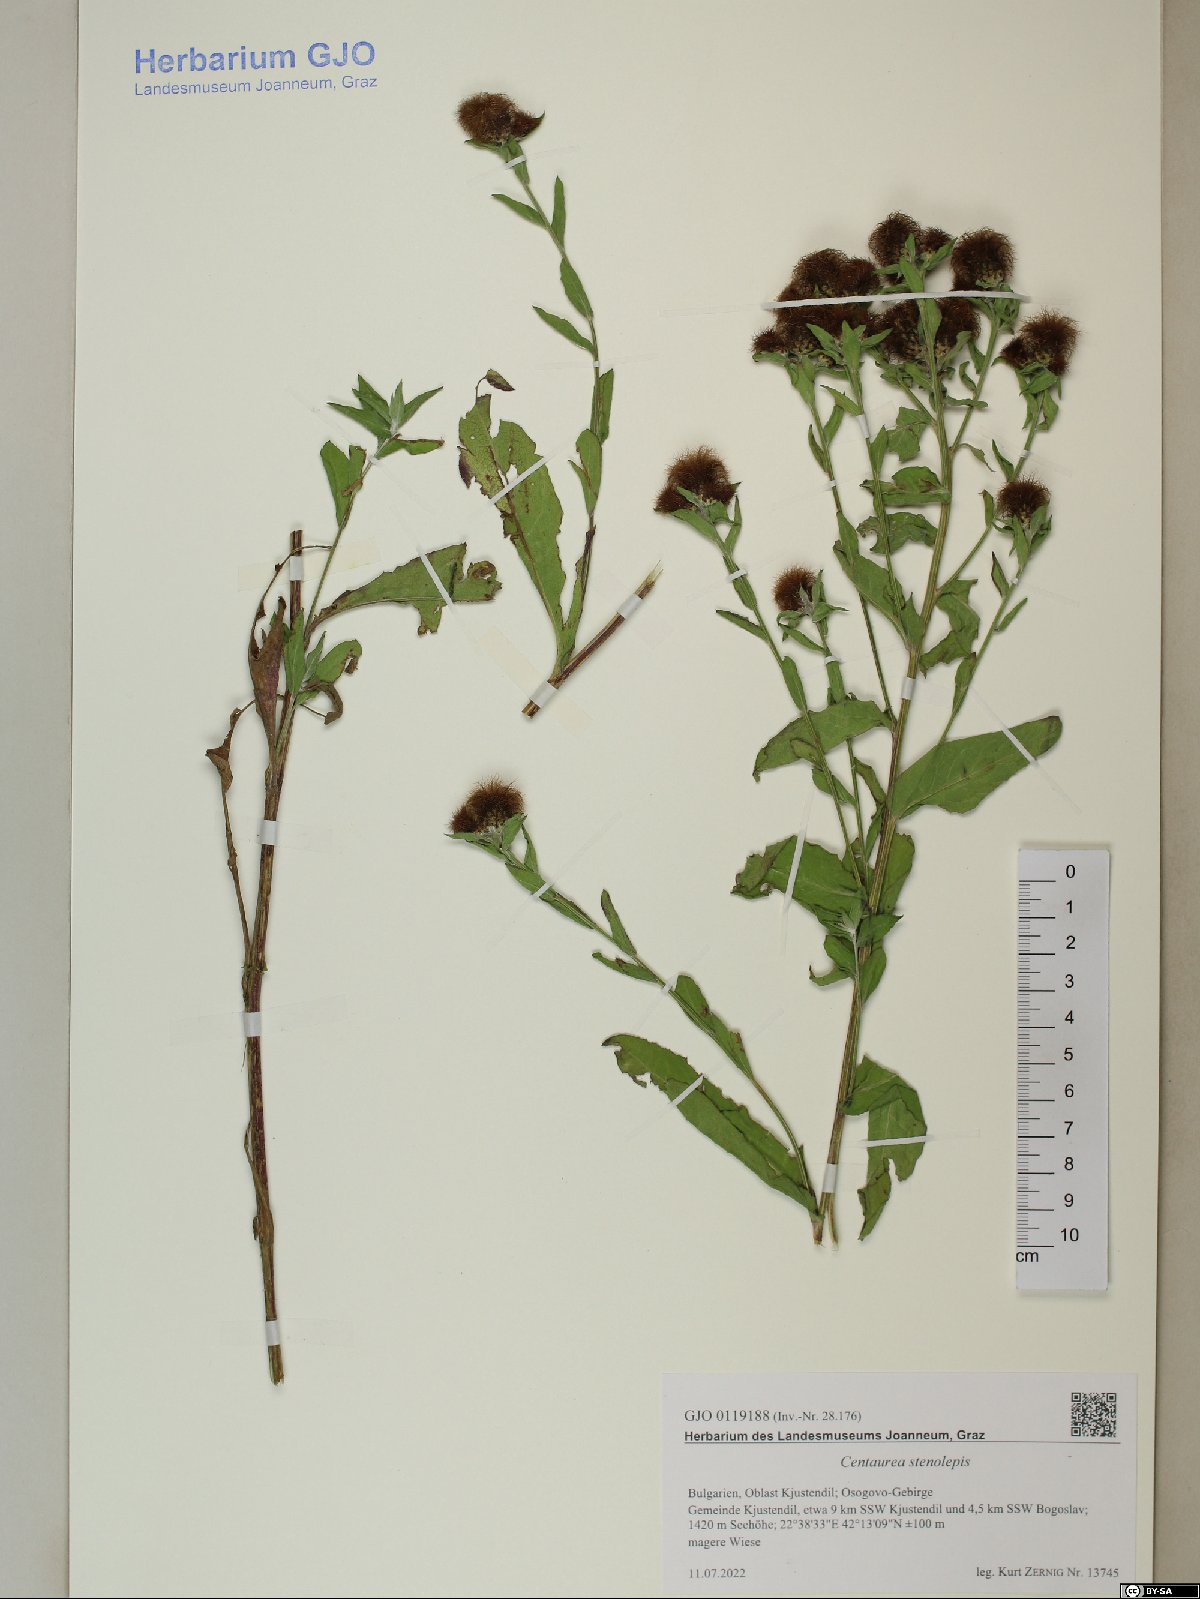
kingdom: Plantae
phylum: Tracheophyta
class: Magnoliopsida
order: Asterales
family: Asteraceae
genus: Centaurea
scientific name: Centaurea stenolepis
